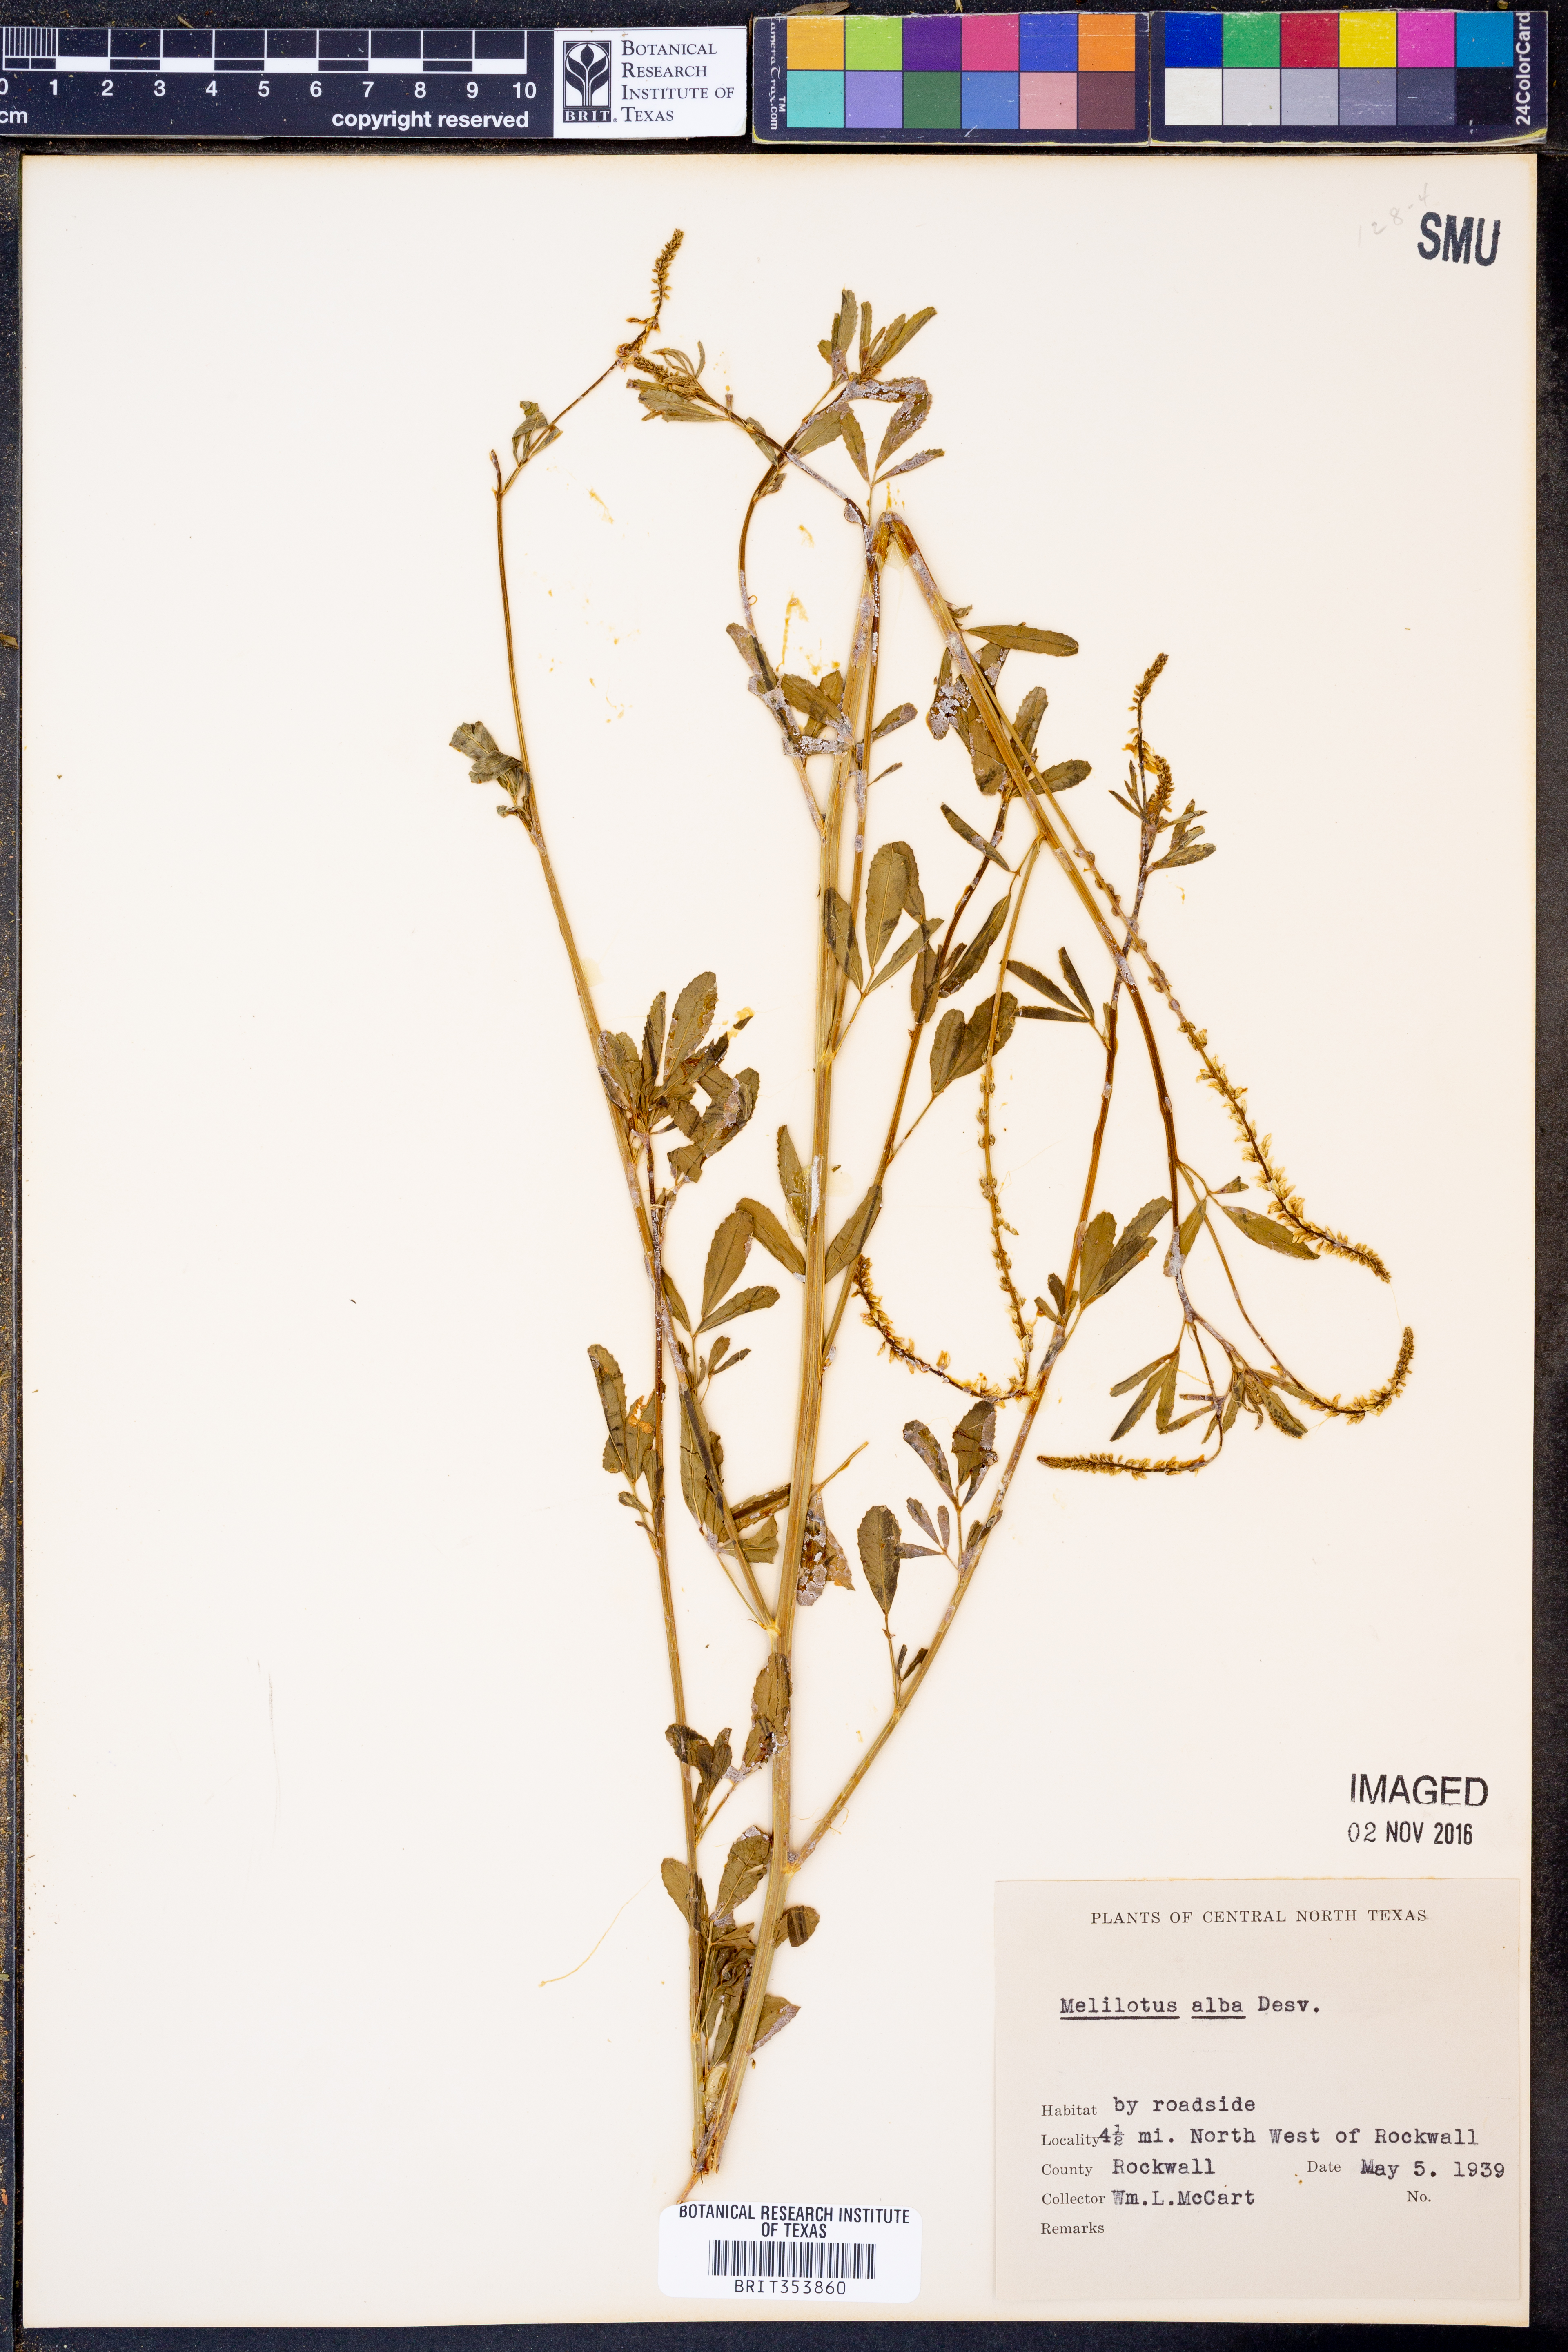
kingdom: Plantae
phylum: Tracheophyta
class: Magnoliopsida
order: Fabales
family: Fabaceae
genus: Melilotus
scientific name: Melilotus albus
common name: White melilot
